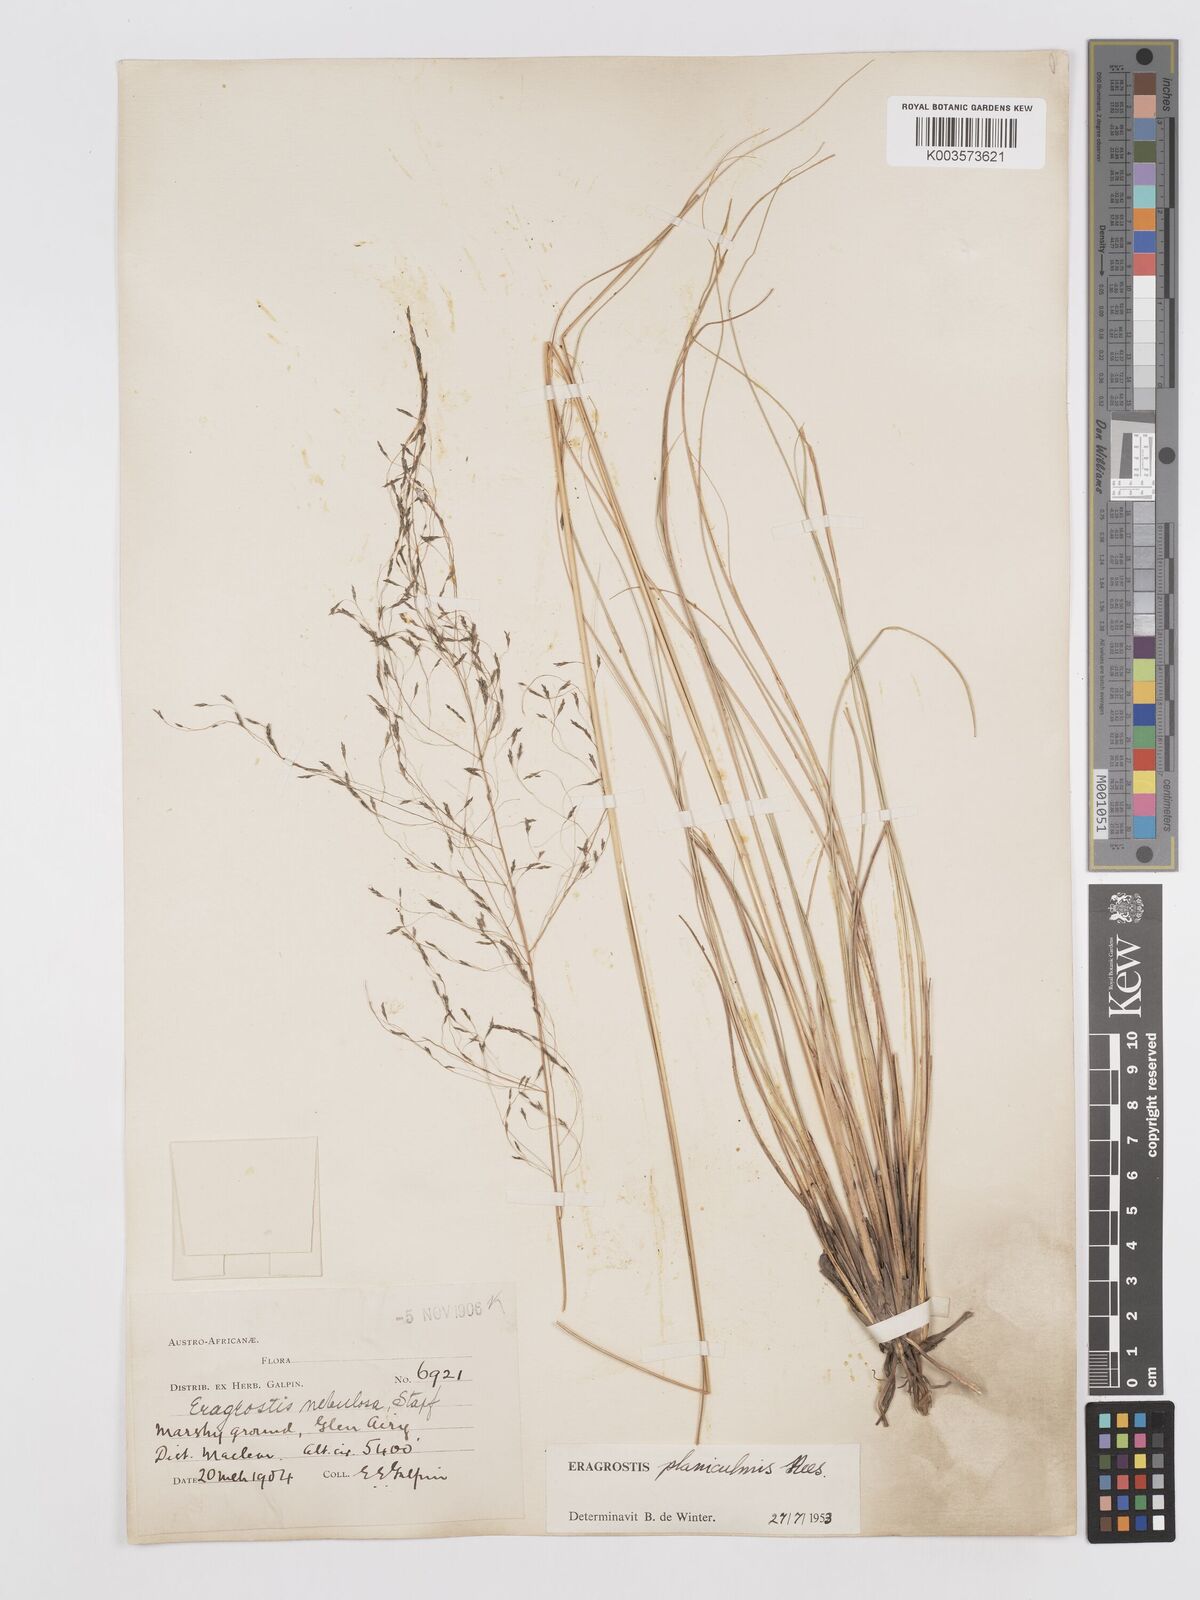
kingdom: Plantae
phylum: Tracheophyta
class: Liliopsida
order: Poales
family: Poaceae
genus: Eragrostis
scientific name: Eragrostis planiculmis
